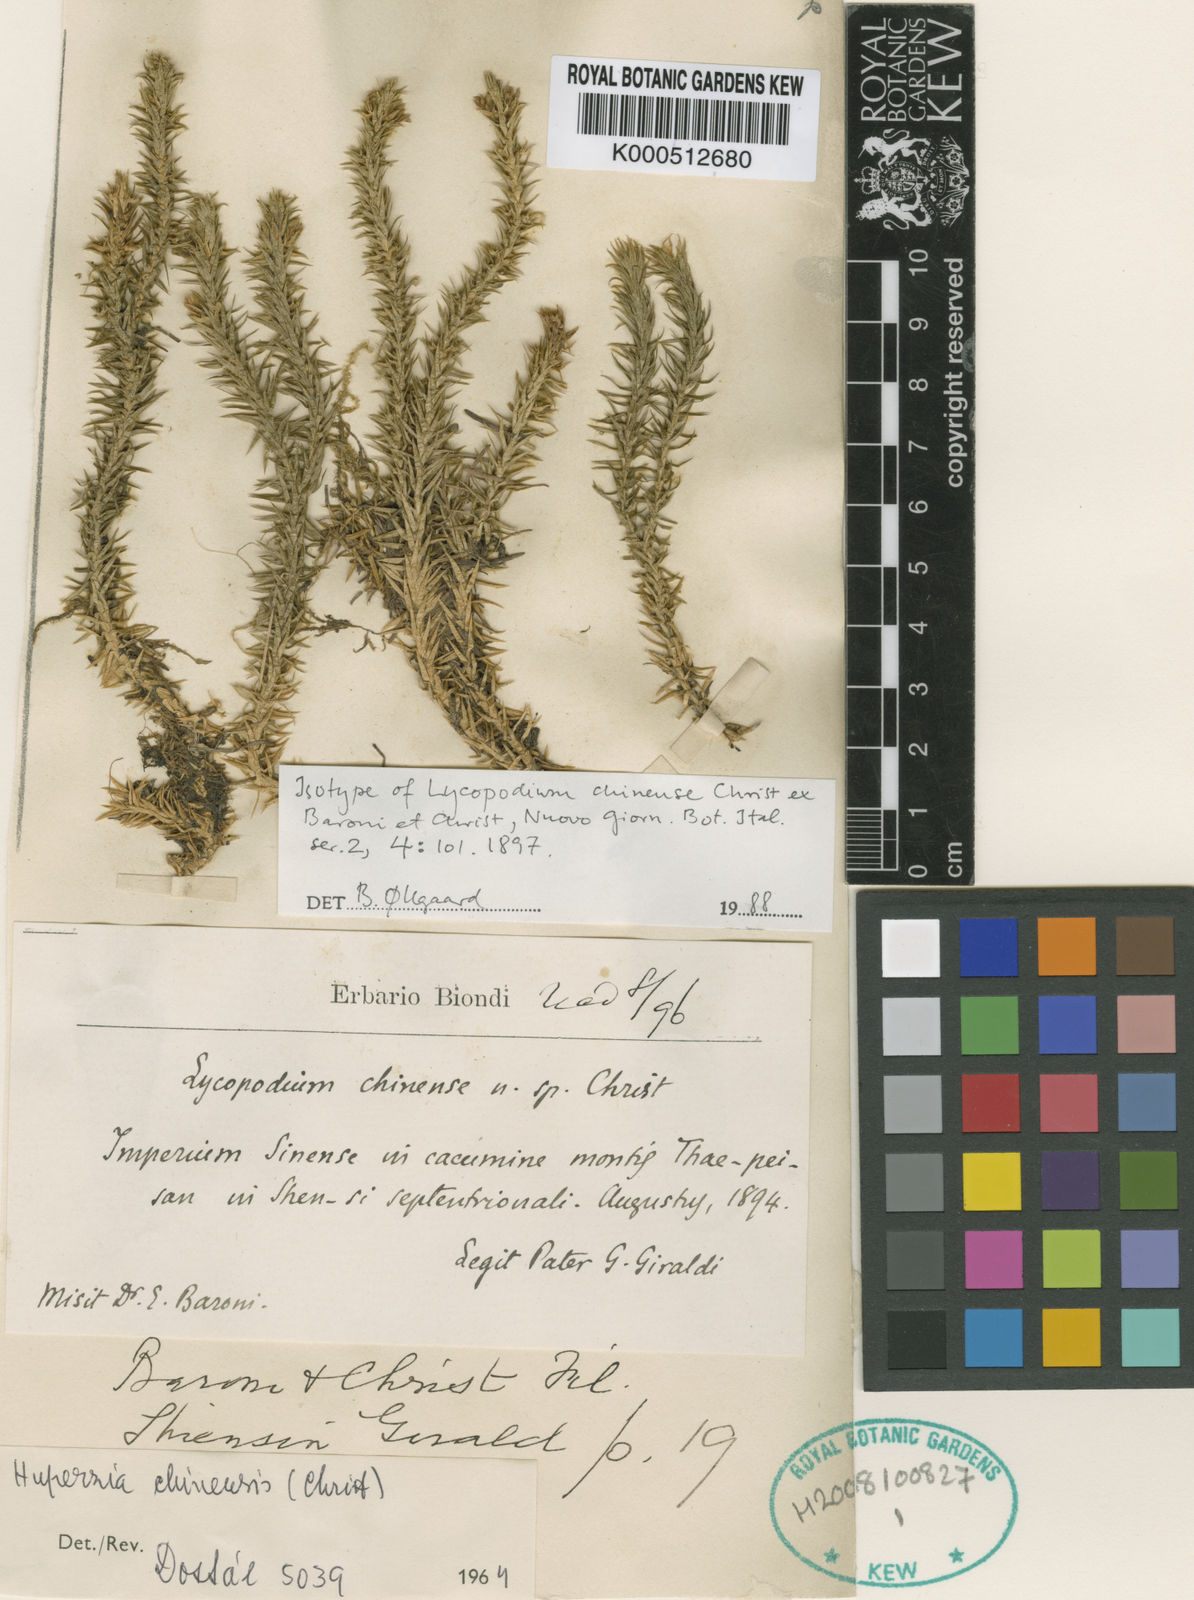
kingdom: Plantae
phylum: Tracheophyta
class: Lycopodiopsida
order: Lycopodiales
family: Lycopodiaceae
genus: Lycopodium
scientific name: Lycopodium
